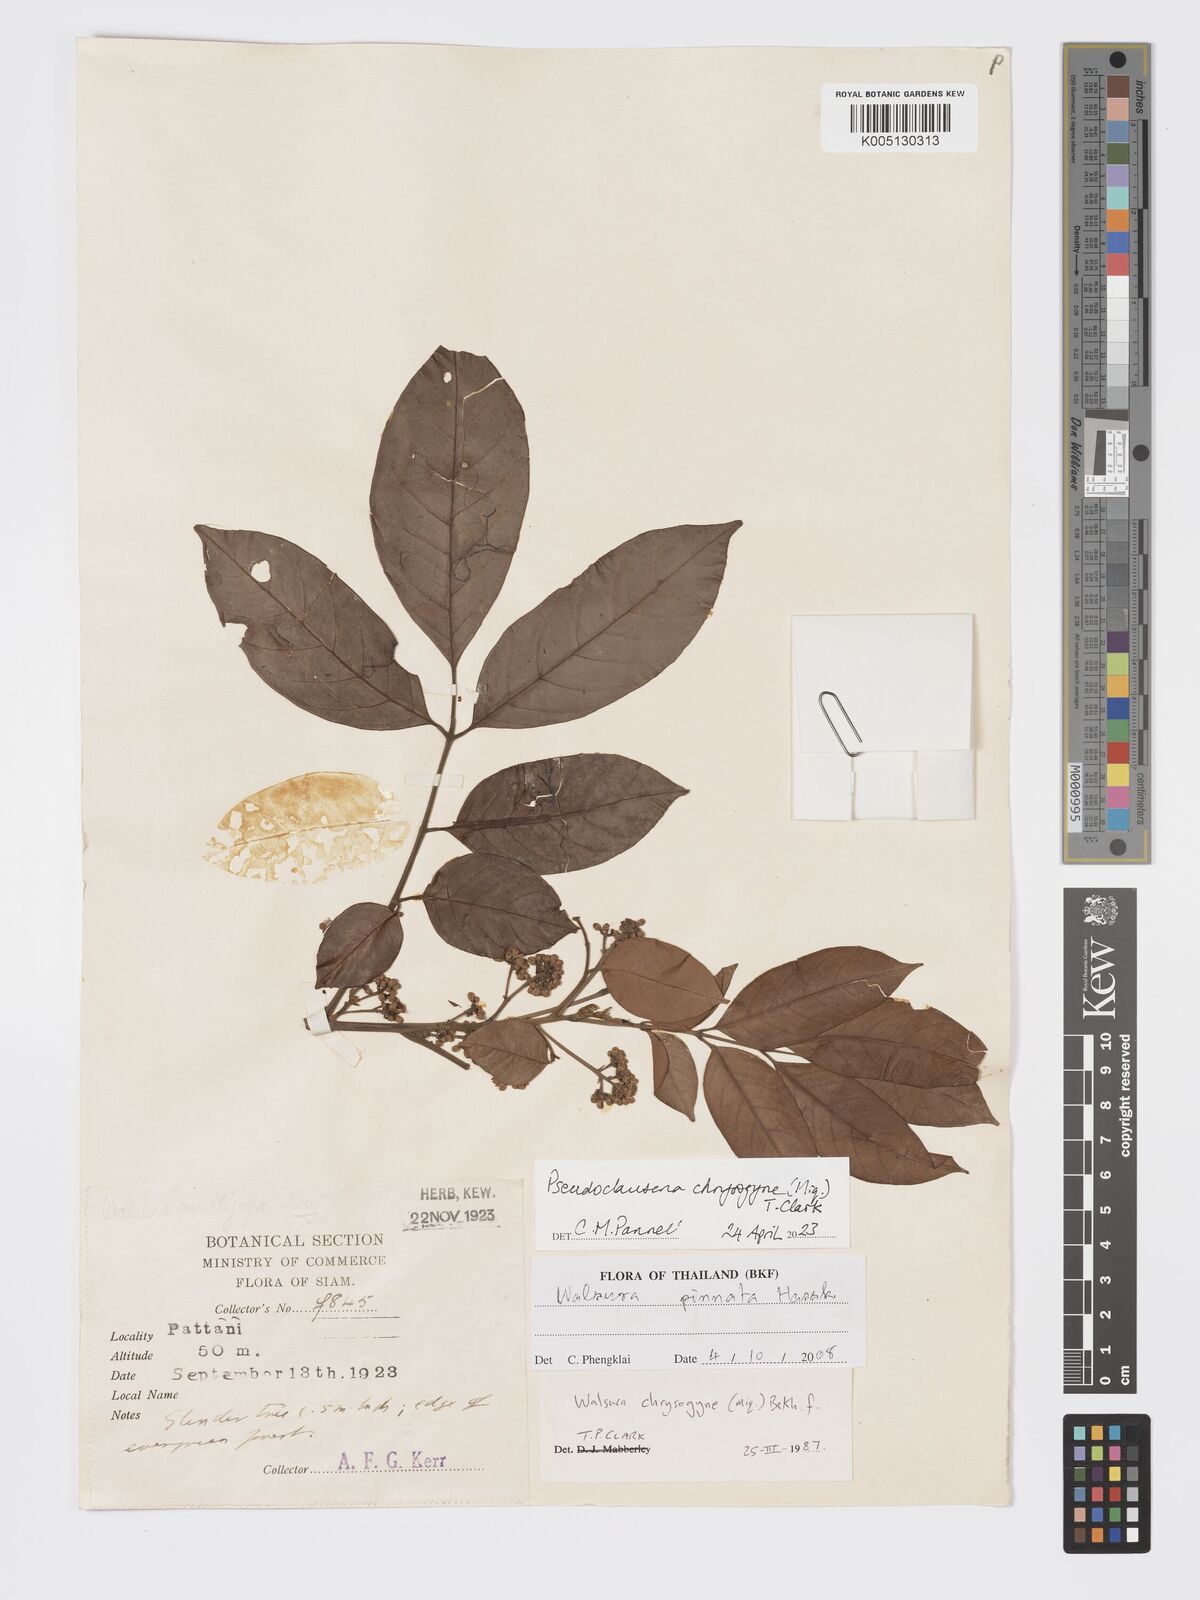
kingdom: Plantae
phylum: Tracheophyta
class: Magnoliopsida
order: Sapindales
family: Meliaceae
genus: Pseudoclausena
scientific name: Pseudoclausena chrysogyne
